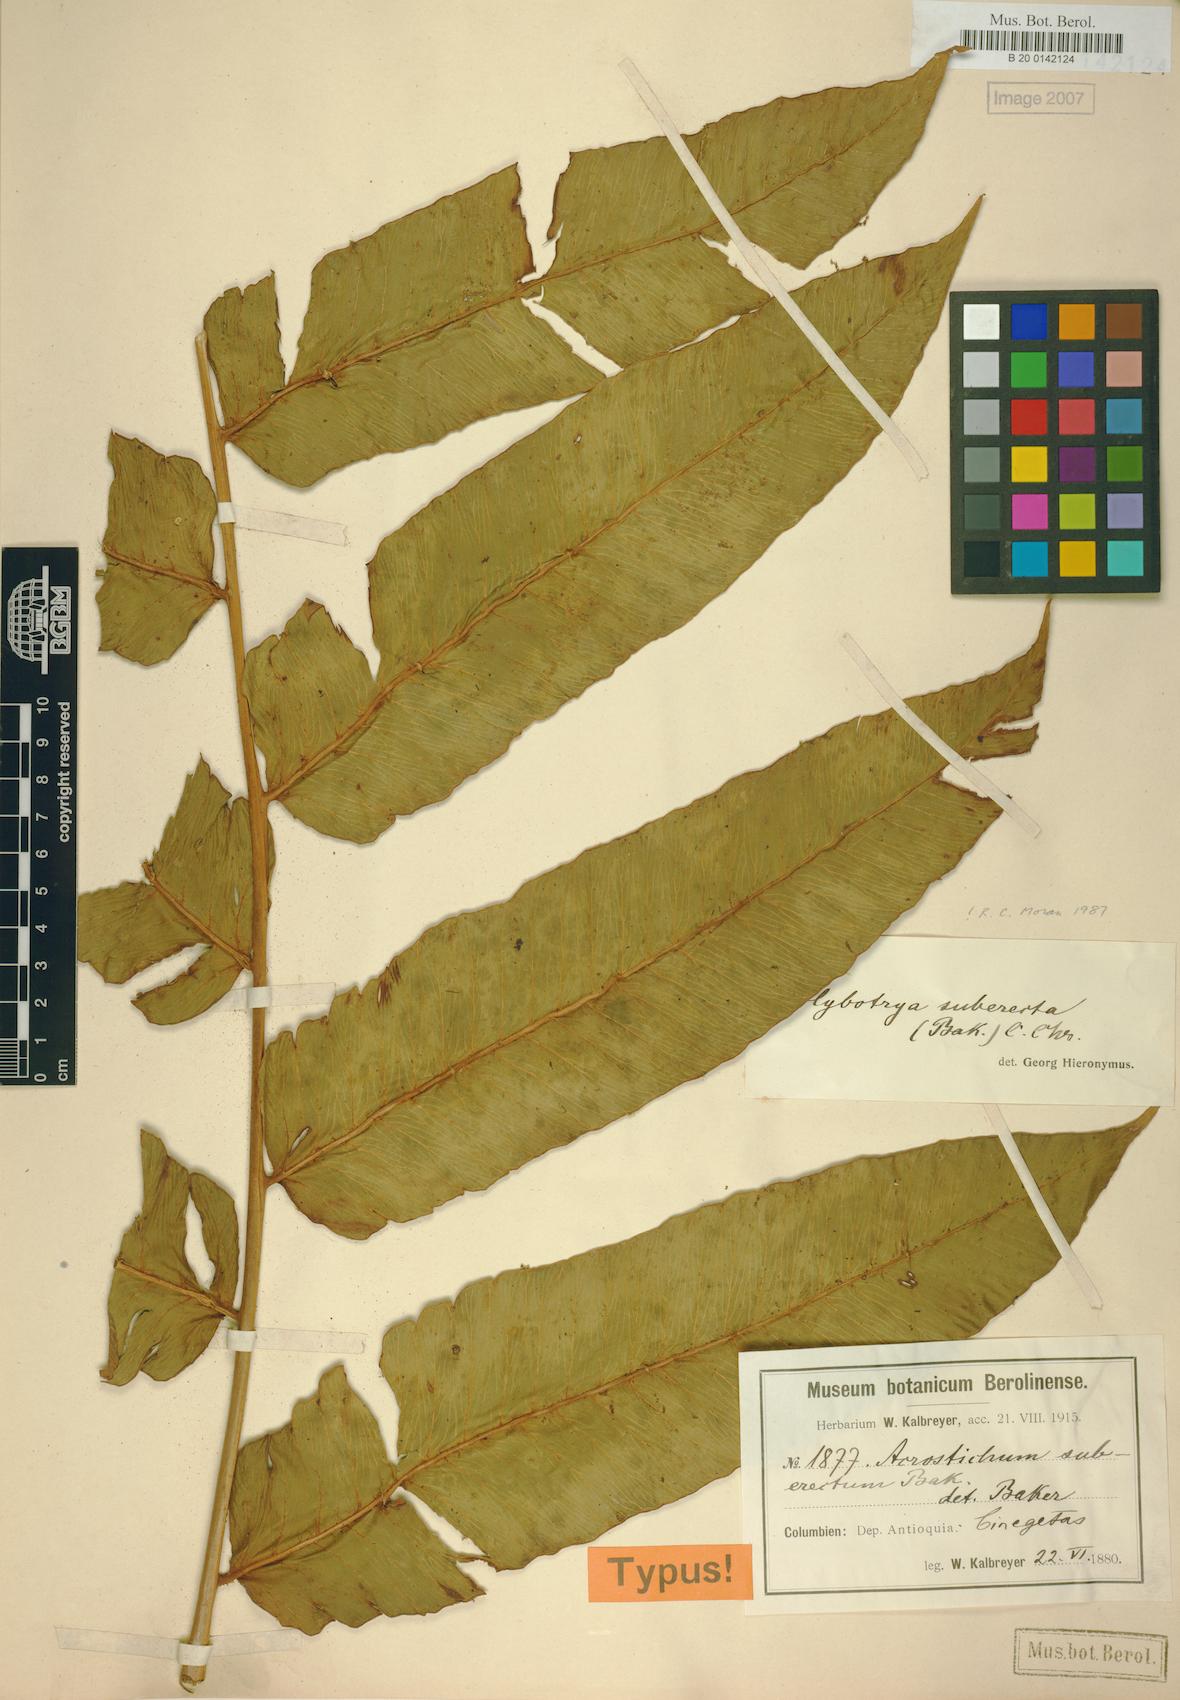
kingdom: Plantae
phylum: Tracheophyta
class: Polypodiopsida
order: Polypodiales
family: Dryopteridaceae
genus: Polybotrya
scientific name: Polybotrya suberecta
